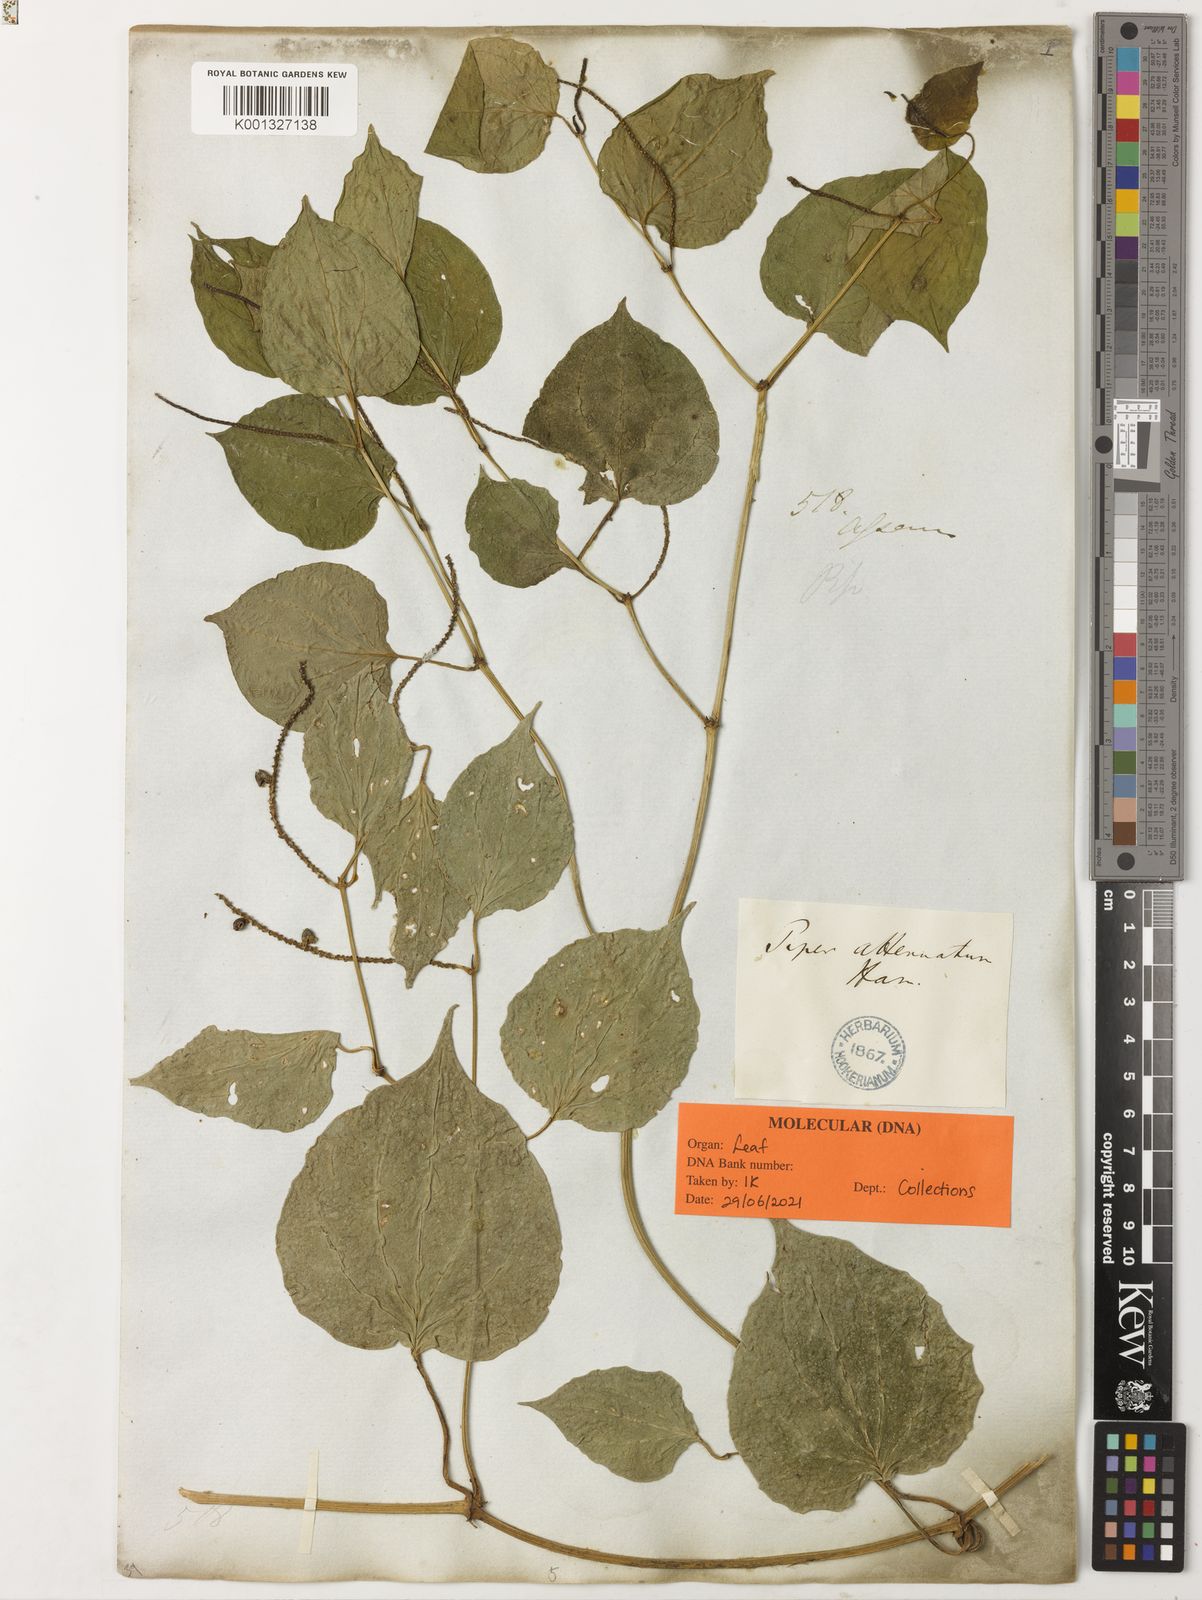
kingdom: Plantae
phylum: Tracheophyta
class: Magnoliopsida
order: Piperales
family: Piperaceae
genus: Piper
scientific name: Piper
